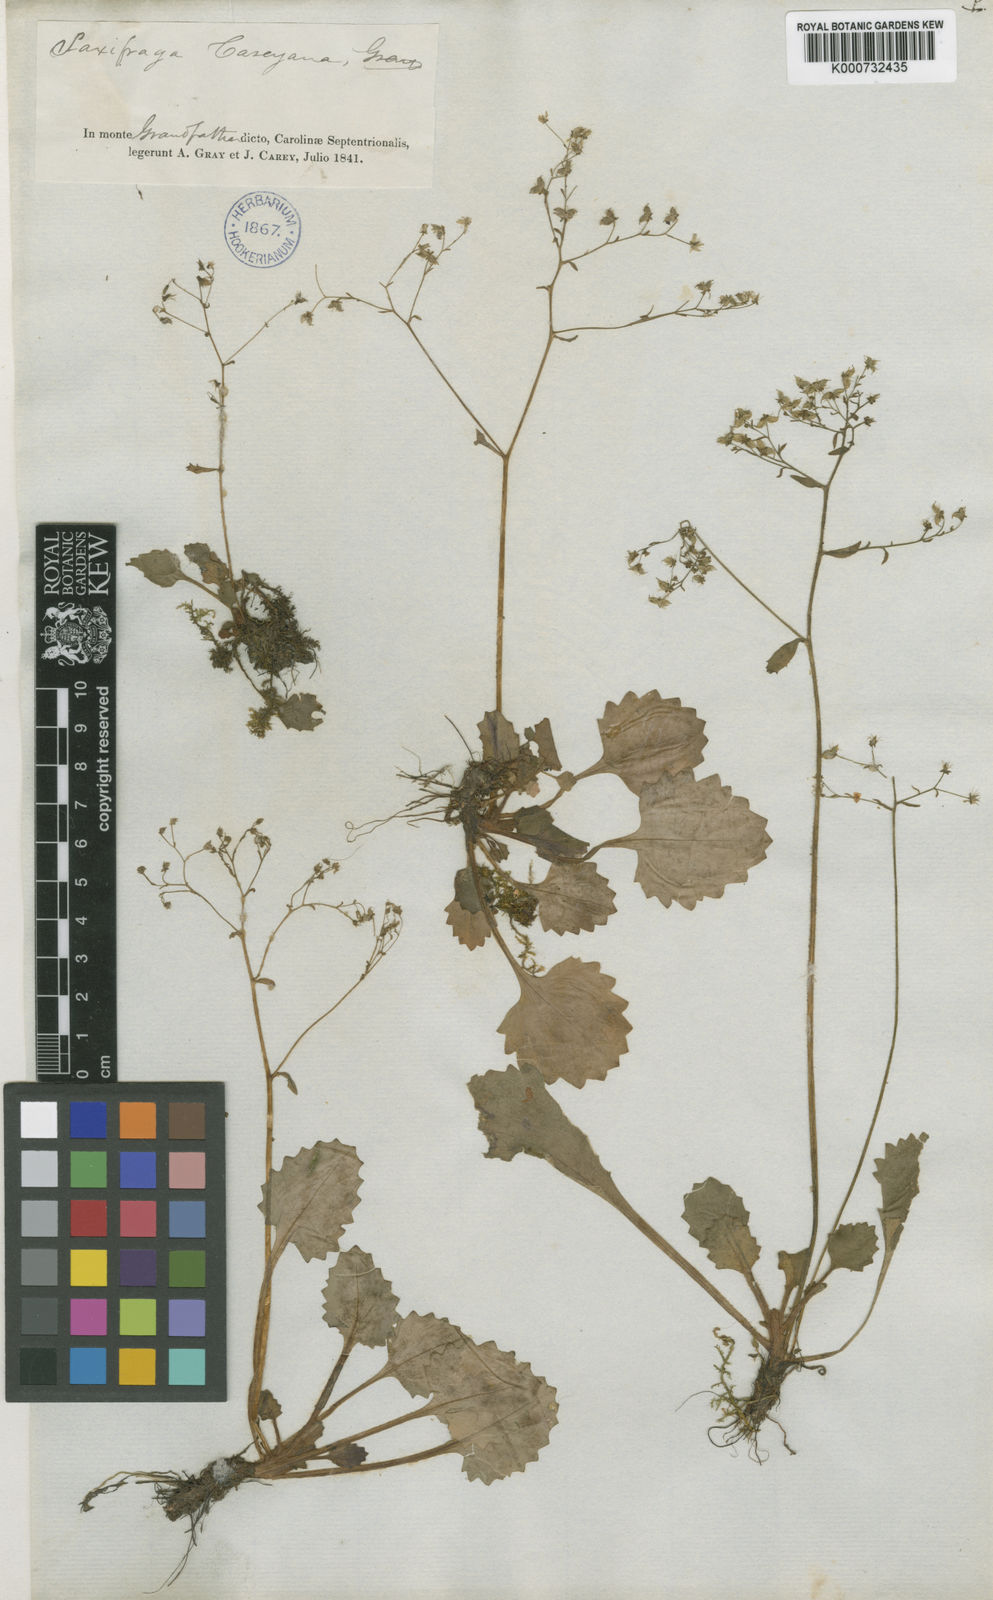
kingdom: Plantae
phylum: Tracheophyta
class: Magnoliopsida
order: Saxifragales
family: Saxifragaceae
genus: Saxifraga
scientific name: Saxifraga
